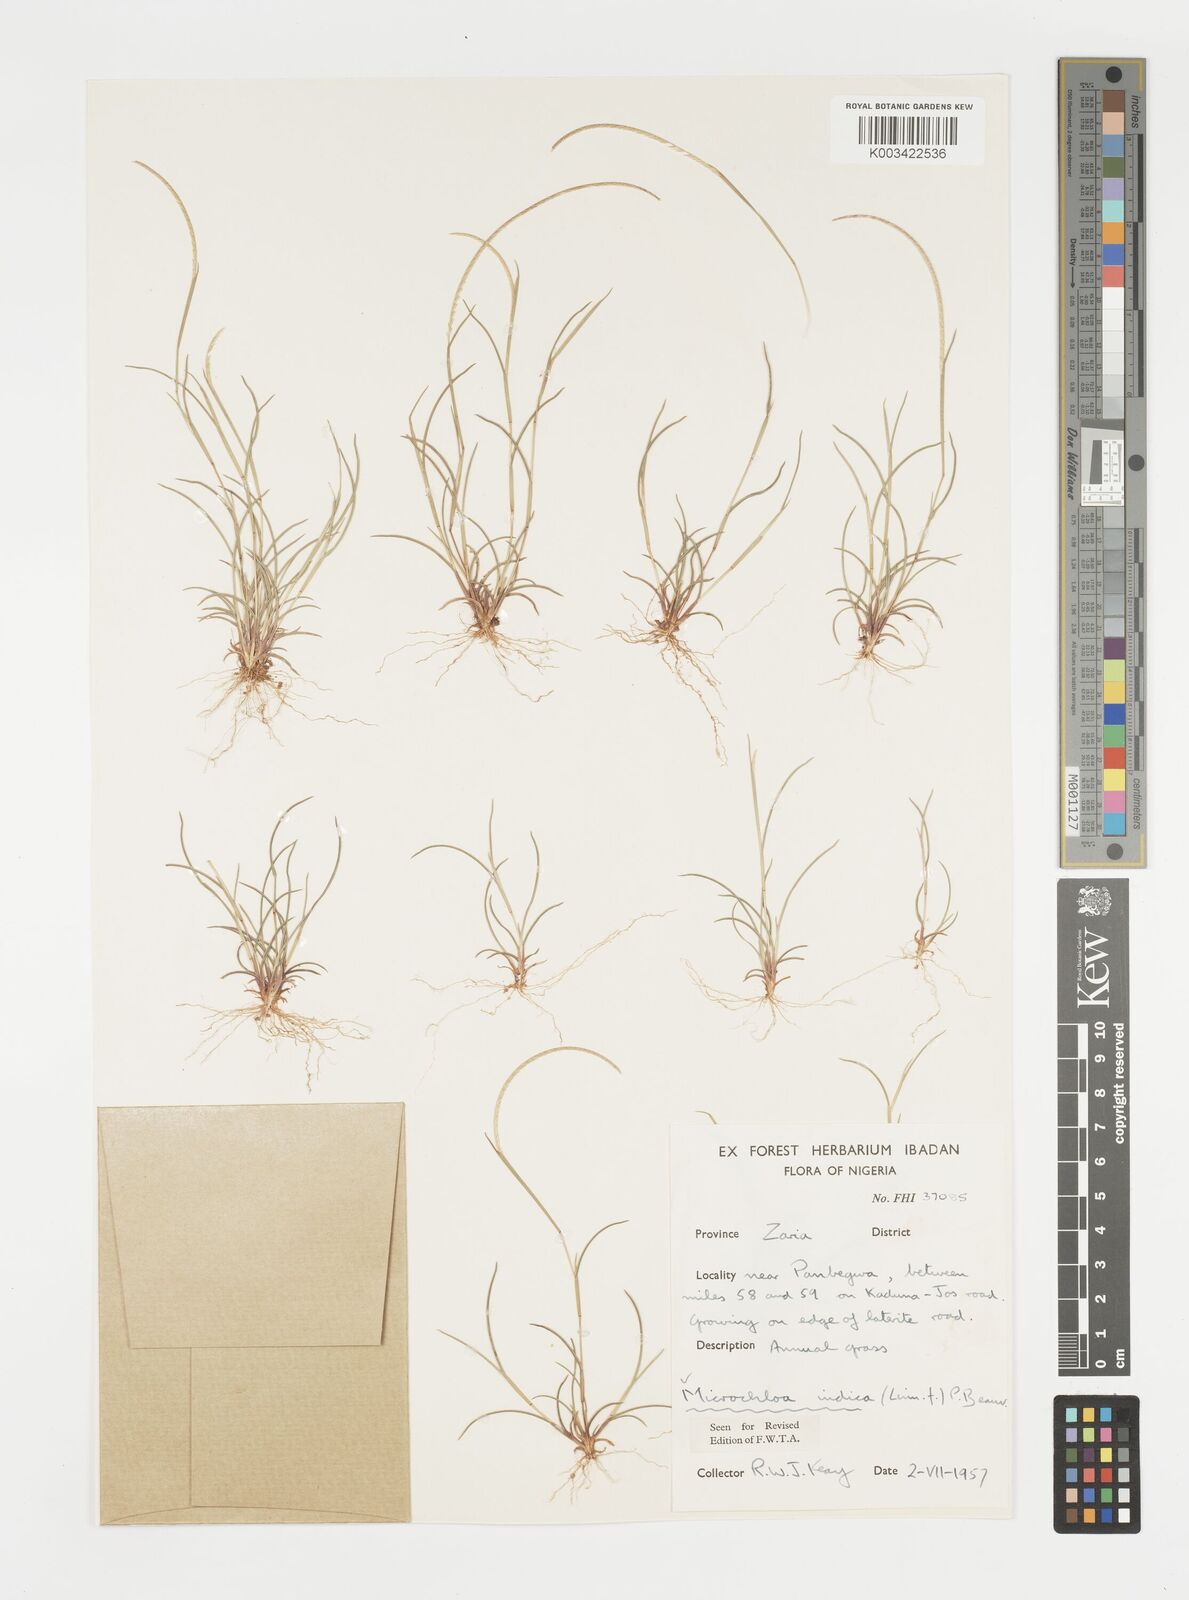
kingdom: Plantae
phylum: Tracheophyta
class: Liliopsida
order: Poales
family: Poaceae
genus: Microchloa
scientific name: Microchloa indica
